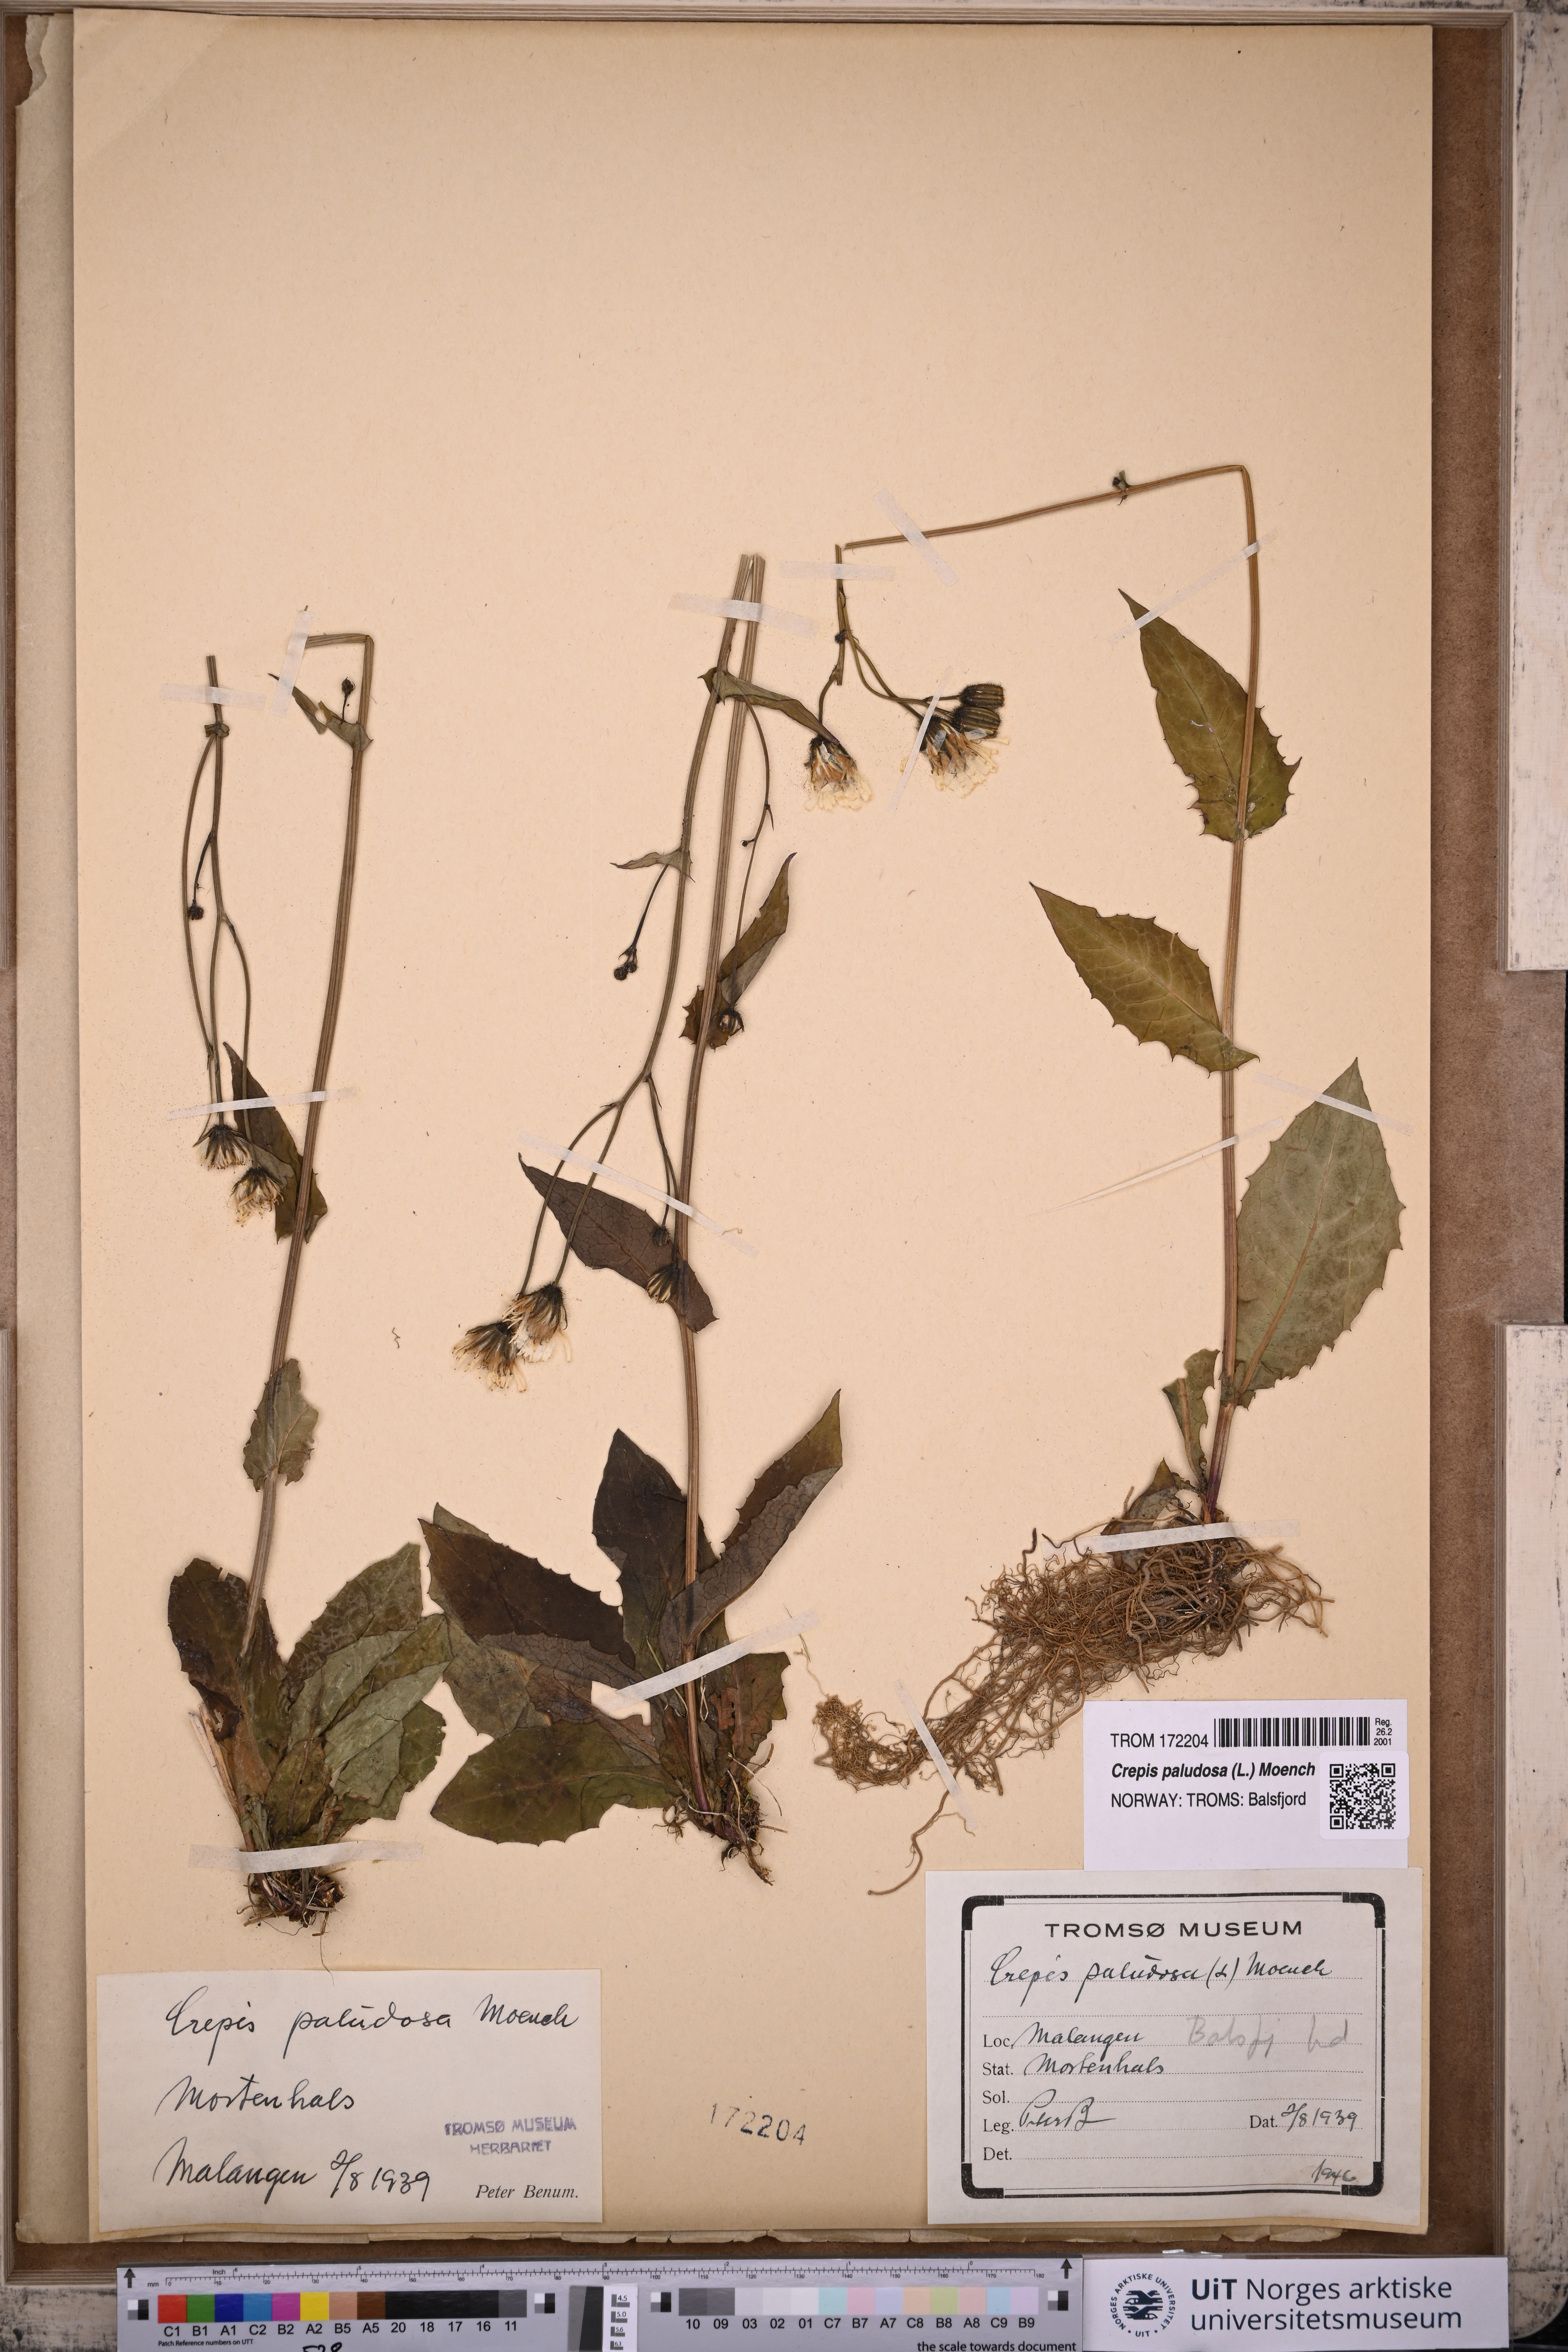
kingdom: Plantae
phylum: Tracheophyta
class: Magnoliopsida
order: Asterales
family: Asteraceae
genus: Crepis
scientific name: Crepis paludosa
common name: Marsh hawk's-beard
